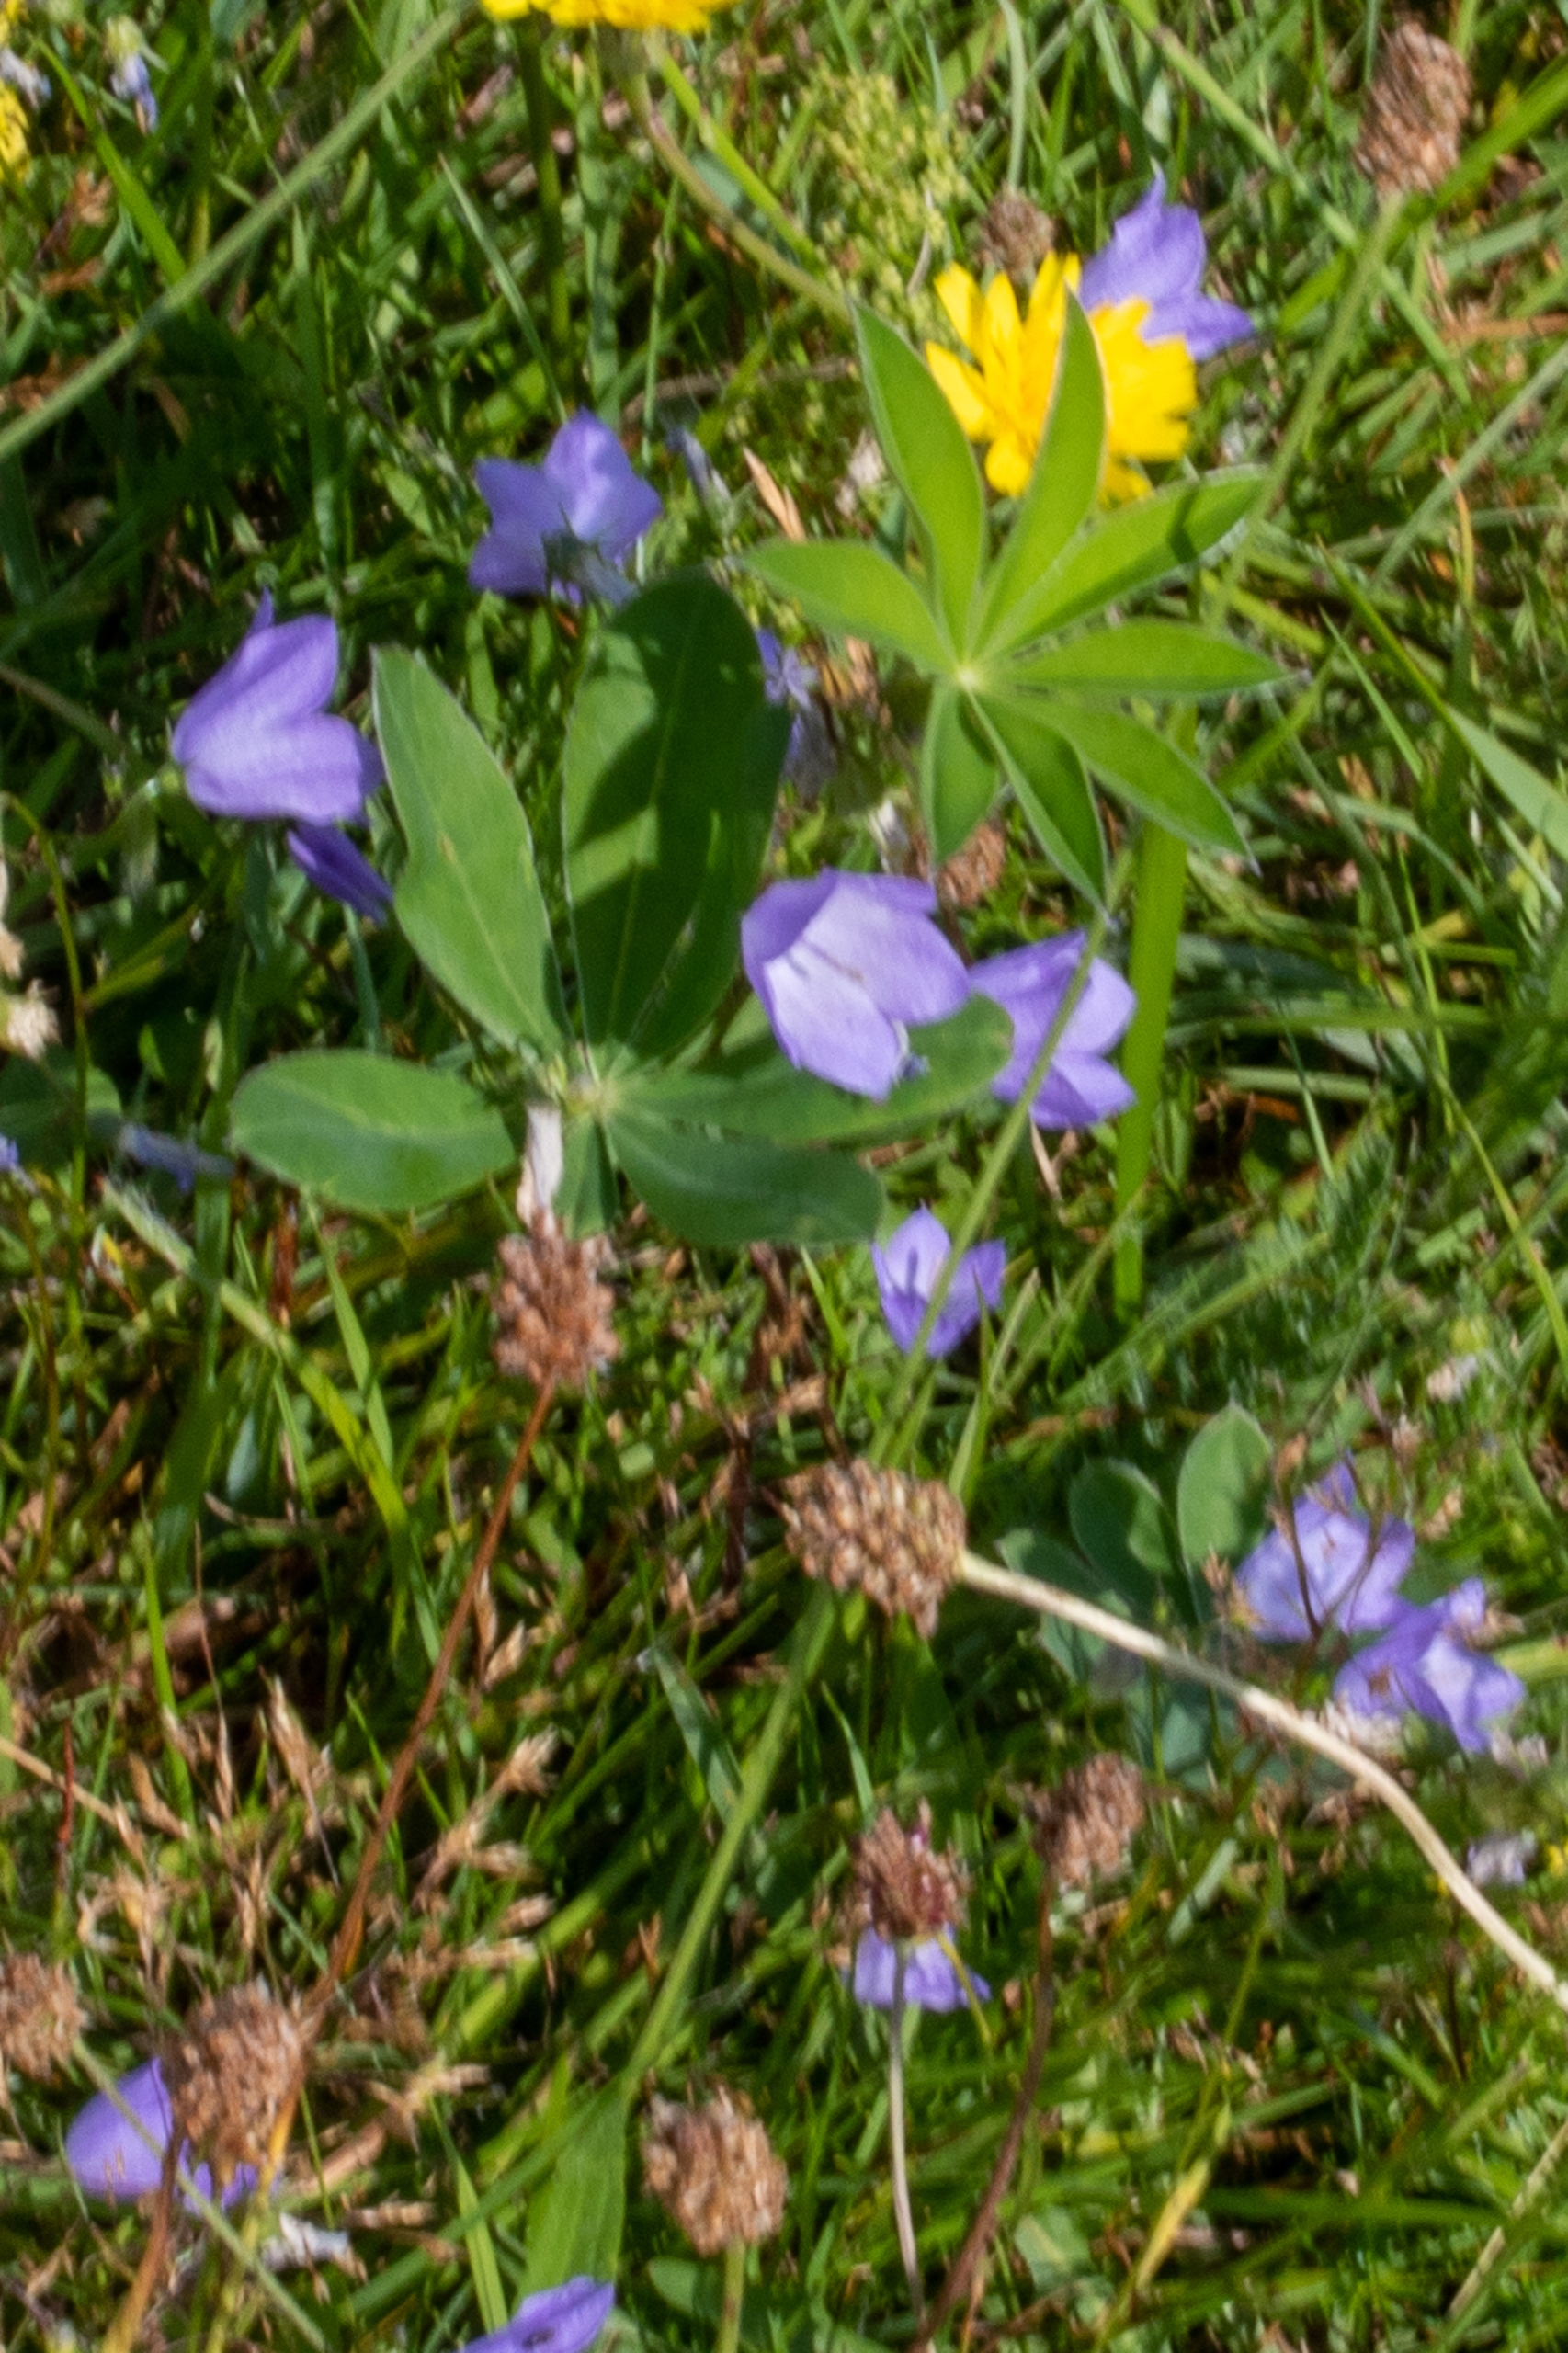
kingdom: Plantae
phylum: Tracheophyta
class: Magnoliopsida
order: Fabales
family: Fabaceae
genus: Lupinus
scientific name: Lupinus polyphyllus
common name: Mangebladet lupin
